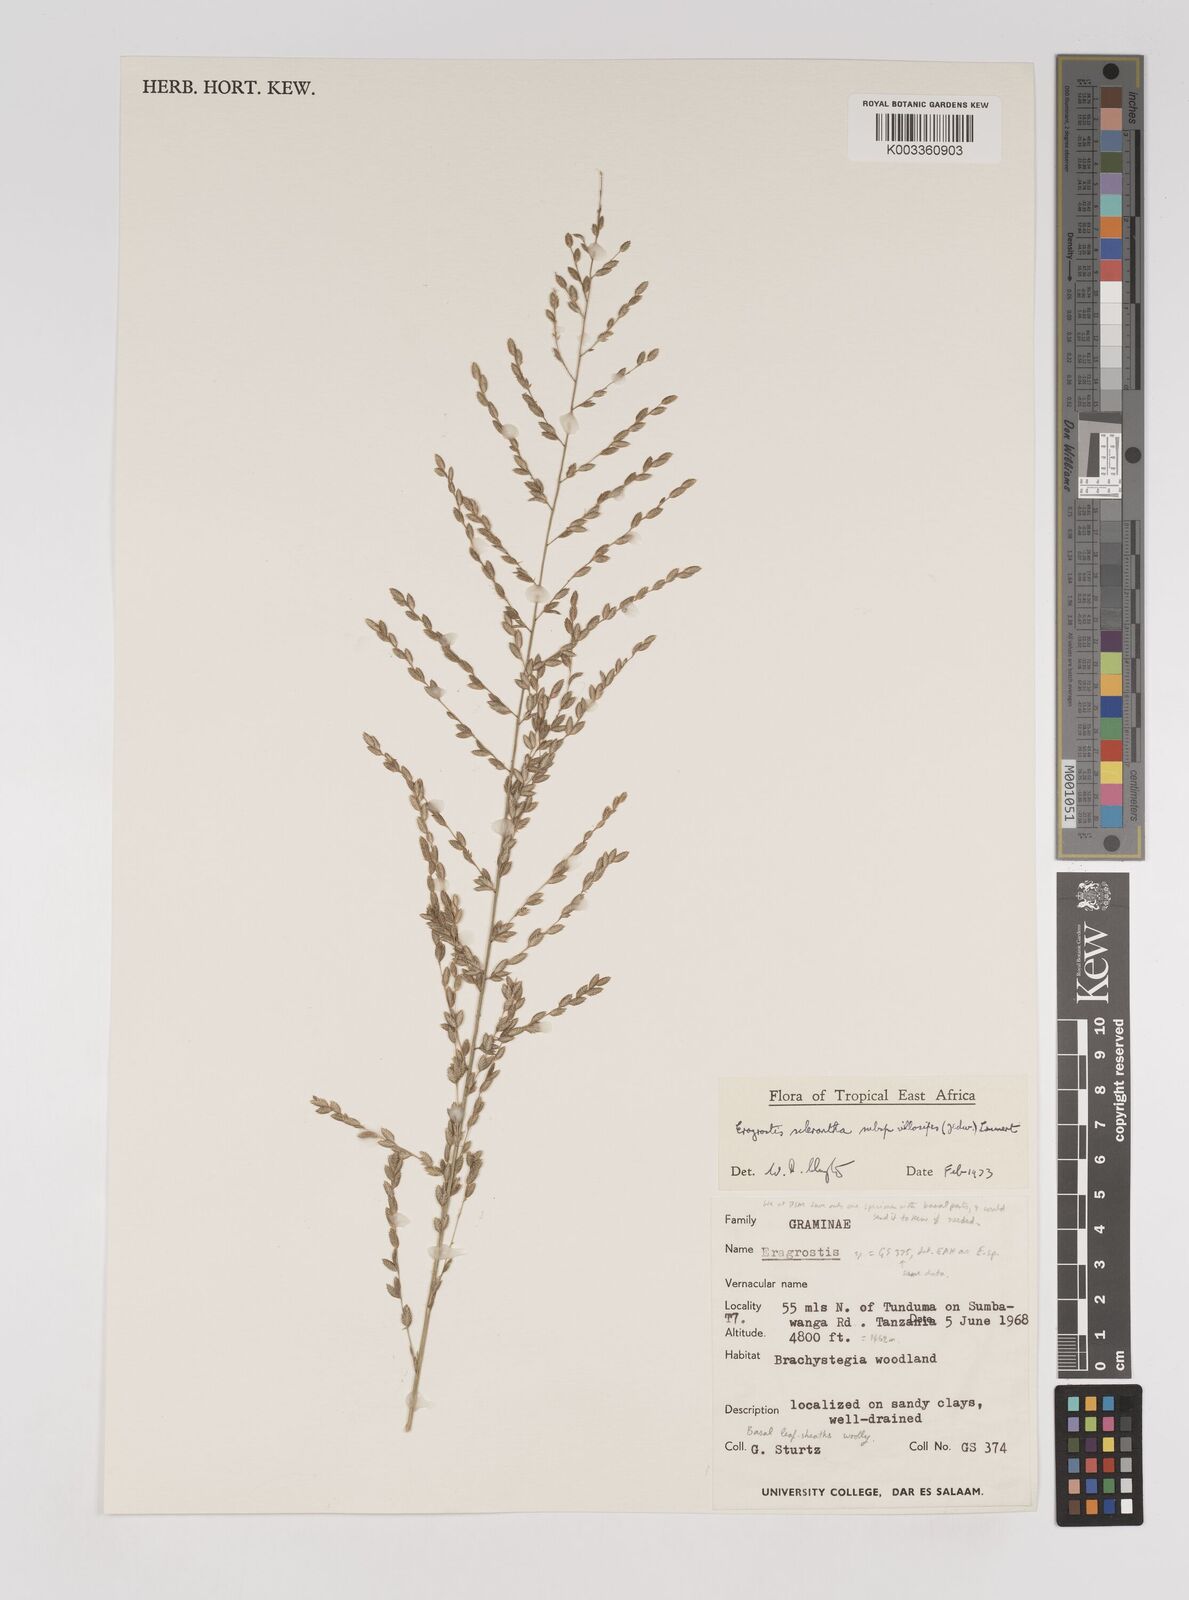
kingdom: Plantae
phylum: Tracheophyta
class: Liliopsida
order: Poales
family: Poaceae
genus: Eragrostis
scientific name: Eragrostis sclerantha
